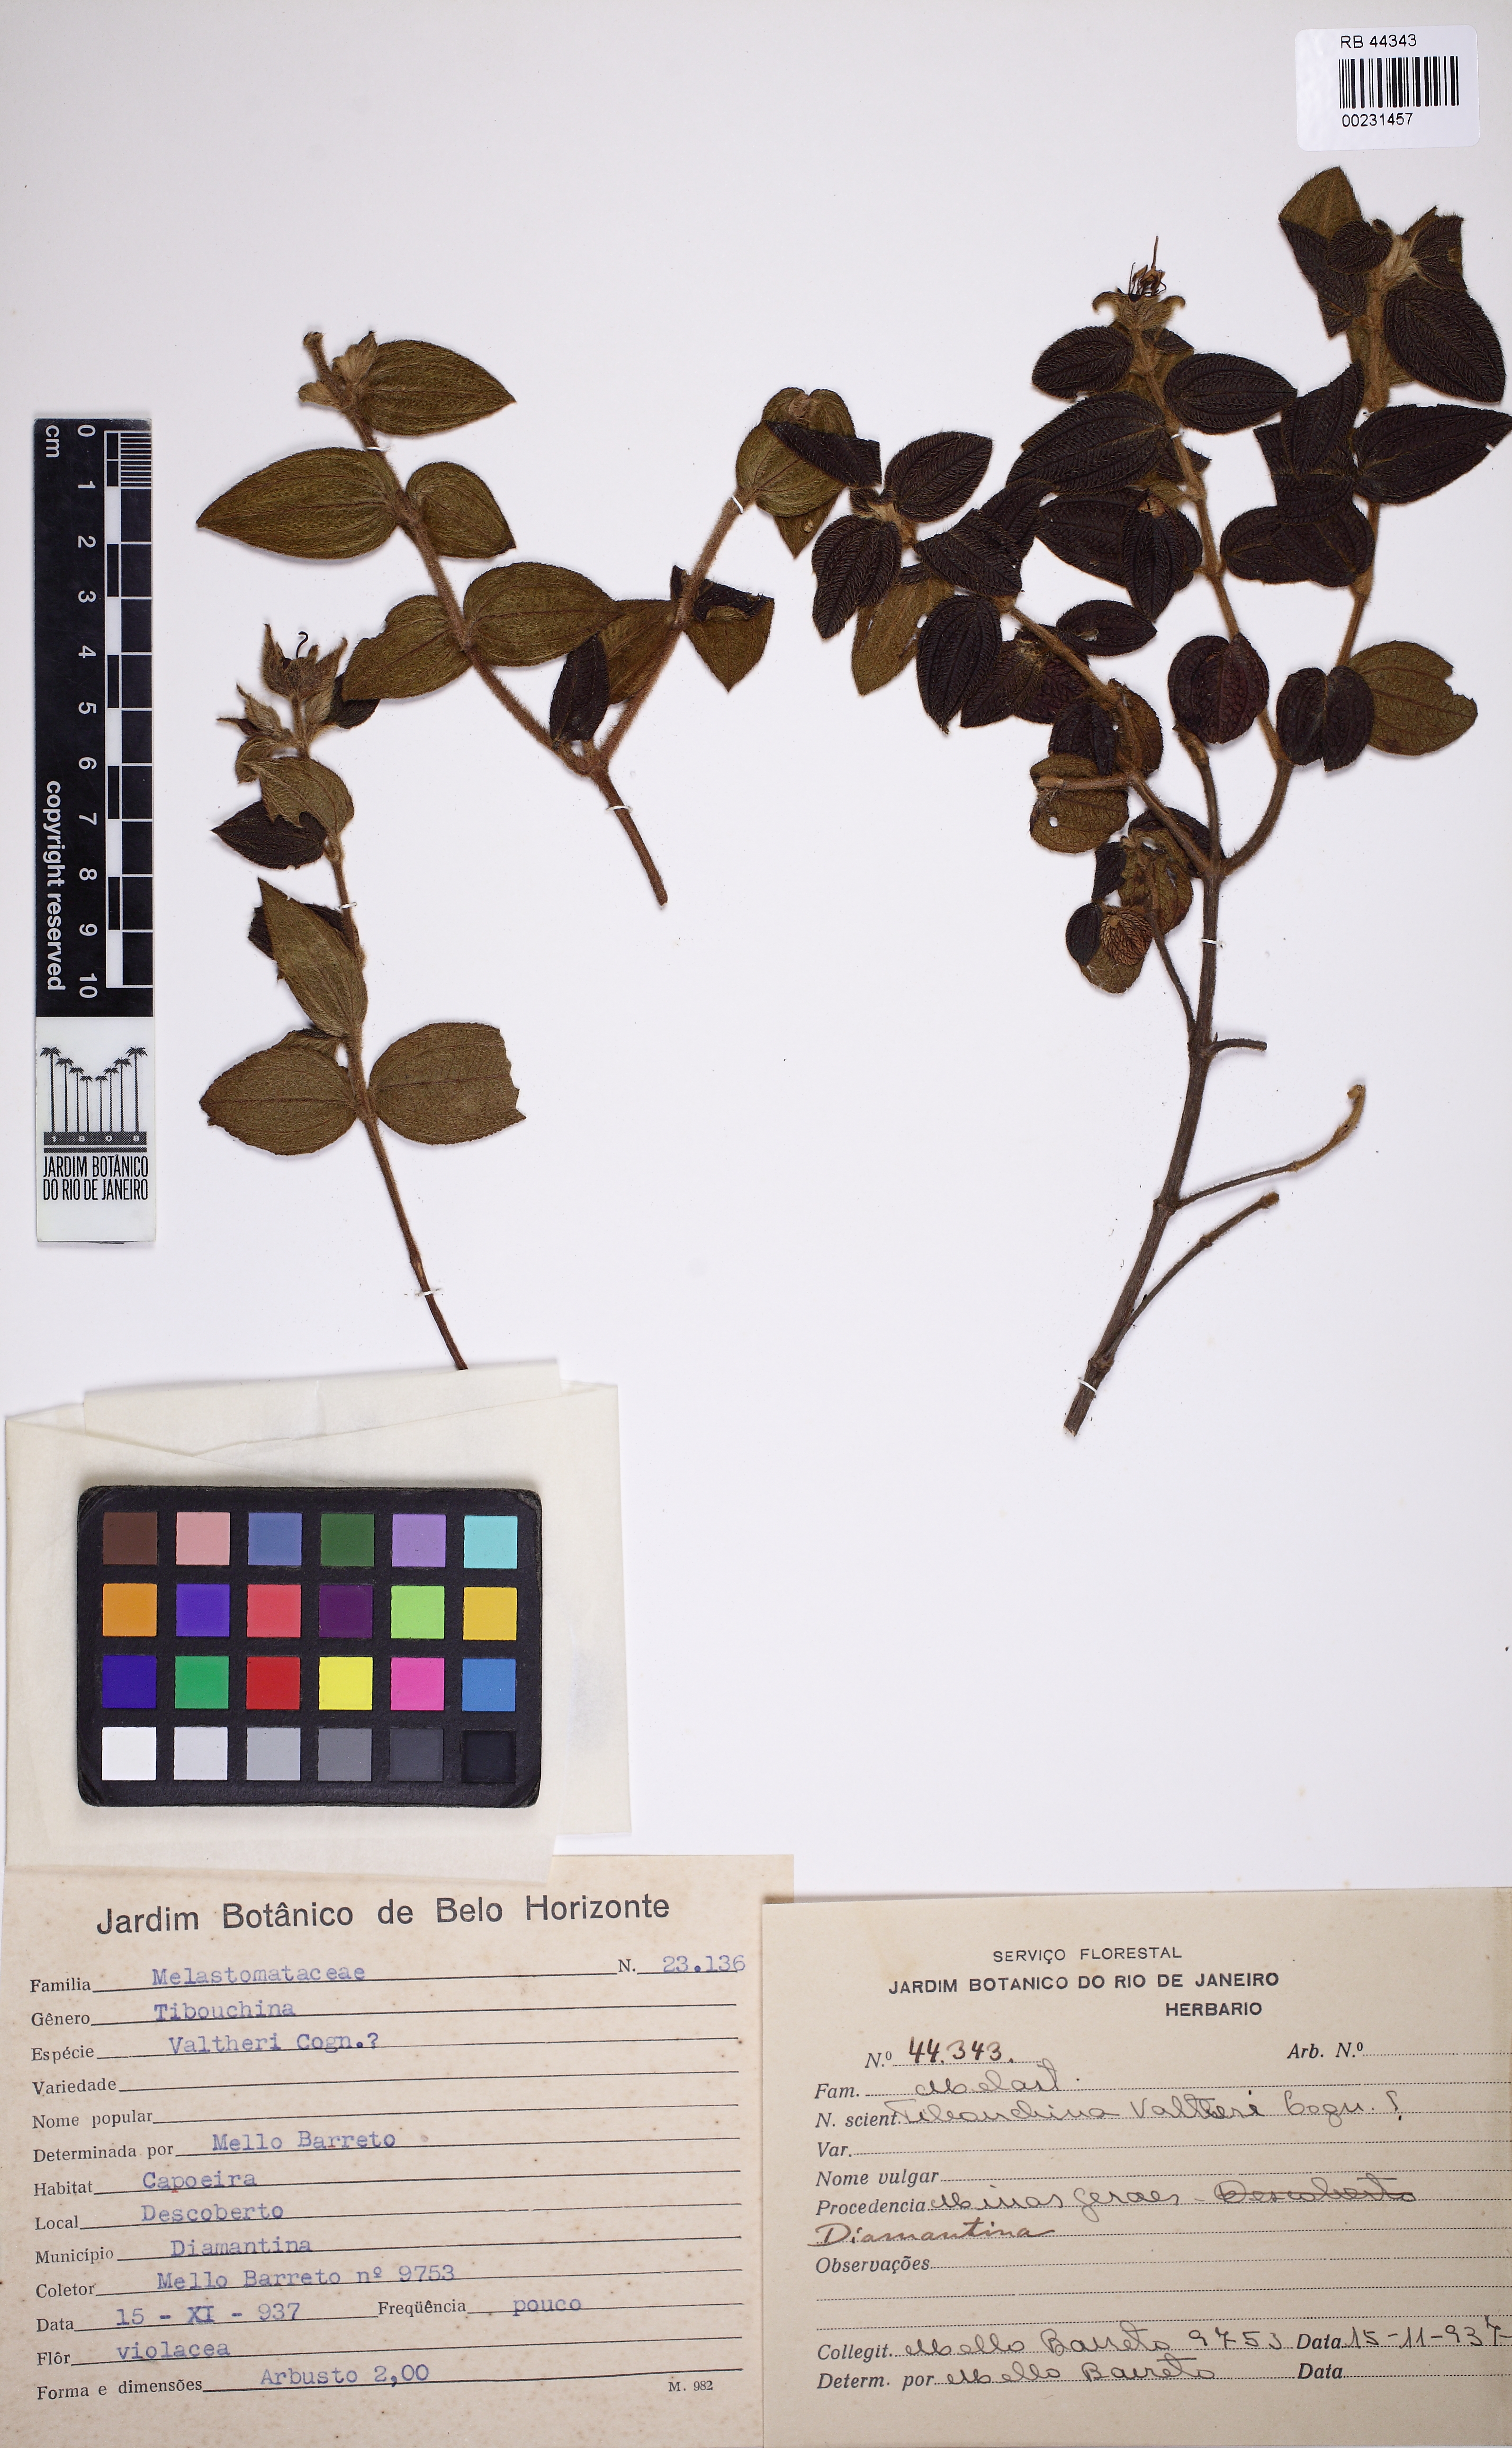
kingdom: Plantae
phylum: Tracheophyta
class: Magnoliopsida
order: Myrtales
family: Melastomataceae
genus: Pleroma
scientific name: Pleroma aemula
